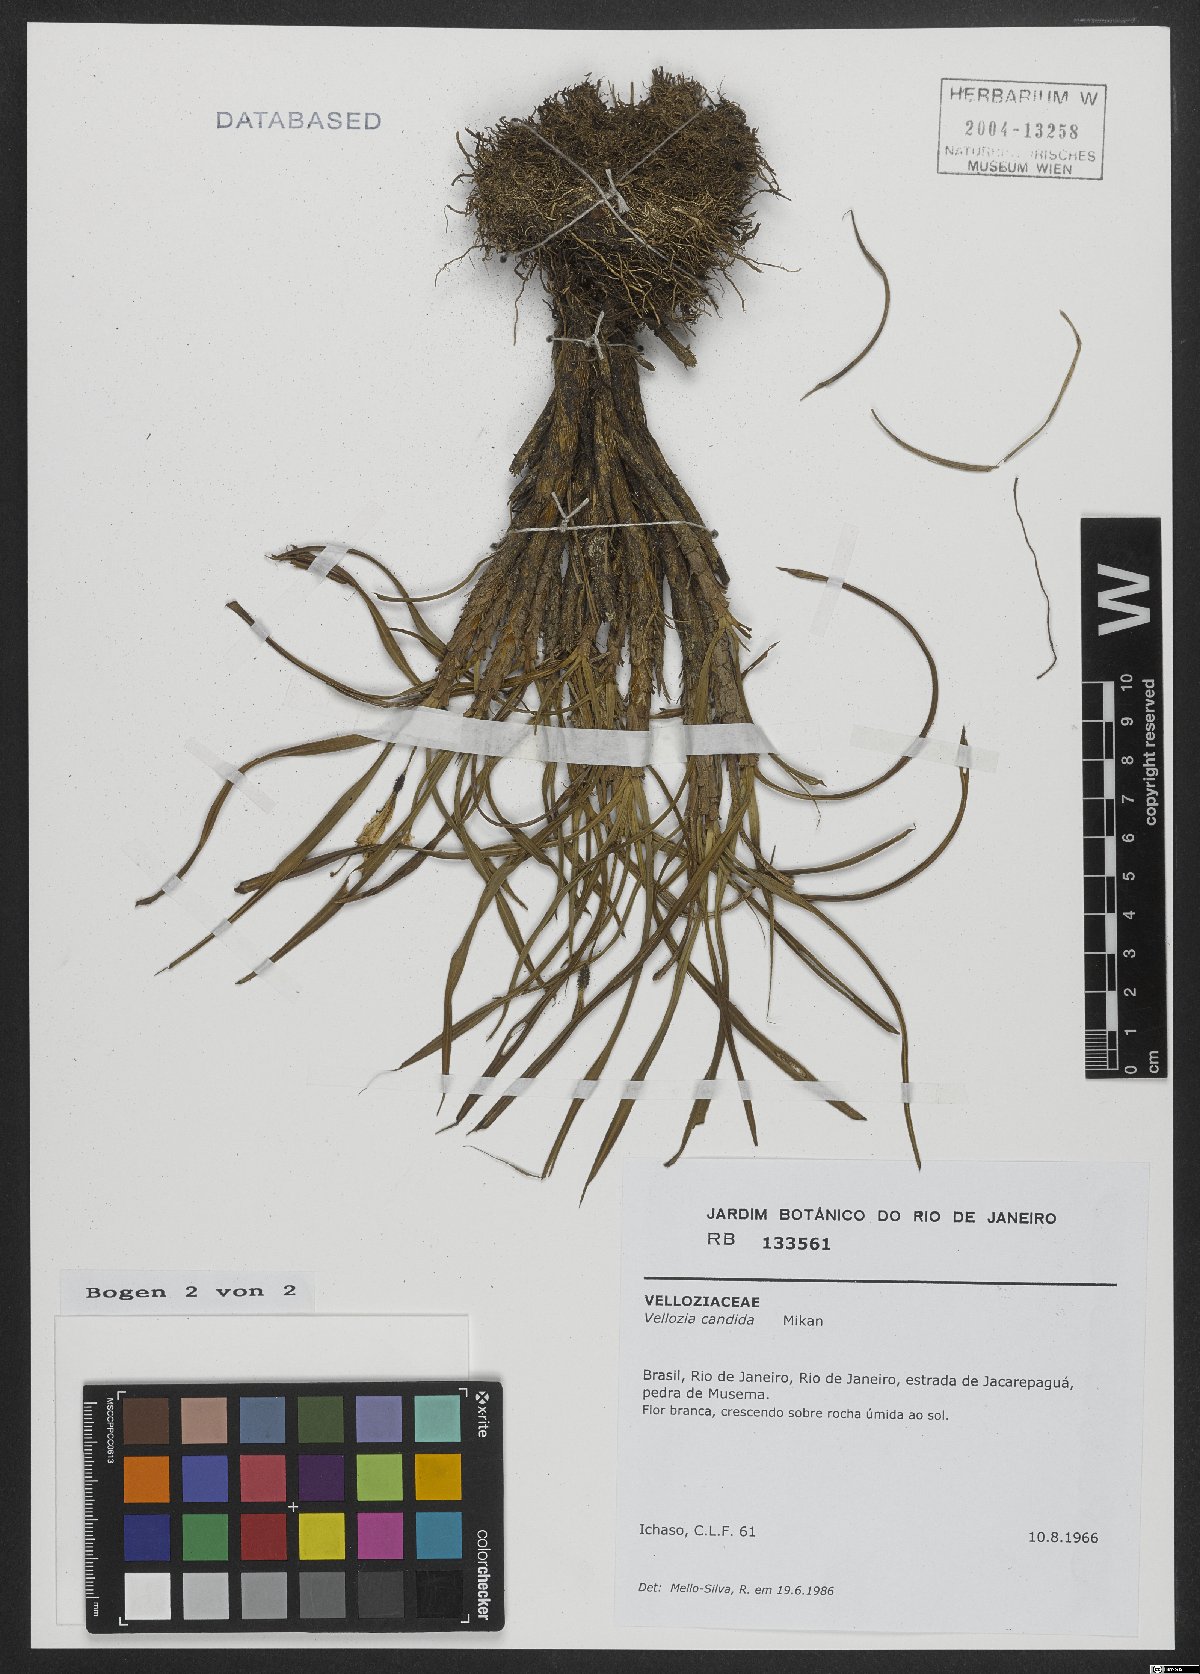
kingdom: Plantae
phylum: Tracheophyta
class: Liliopsida
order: Pandanales
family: Velloziaceae
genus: Vellozia
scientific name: Vellozia candida
